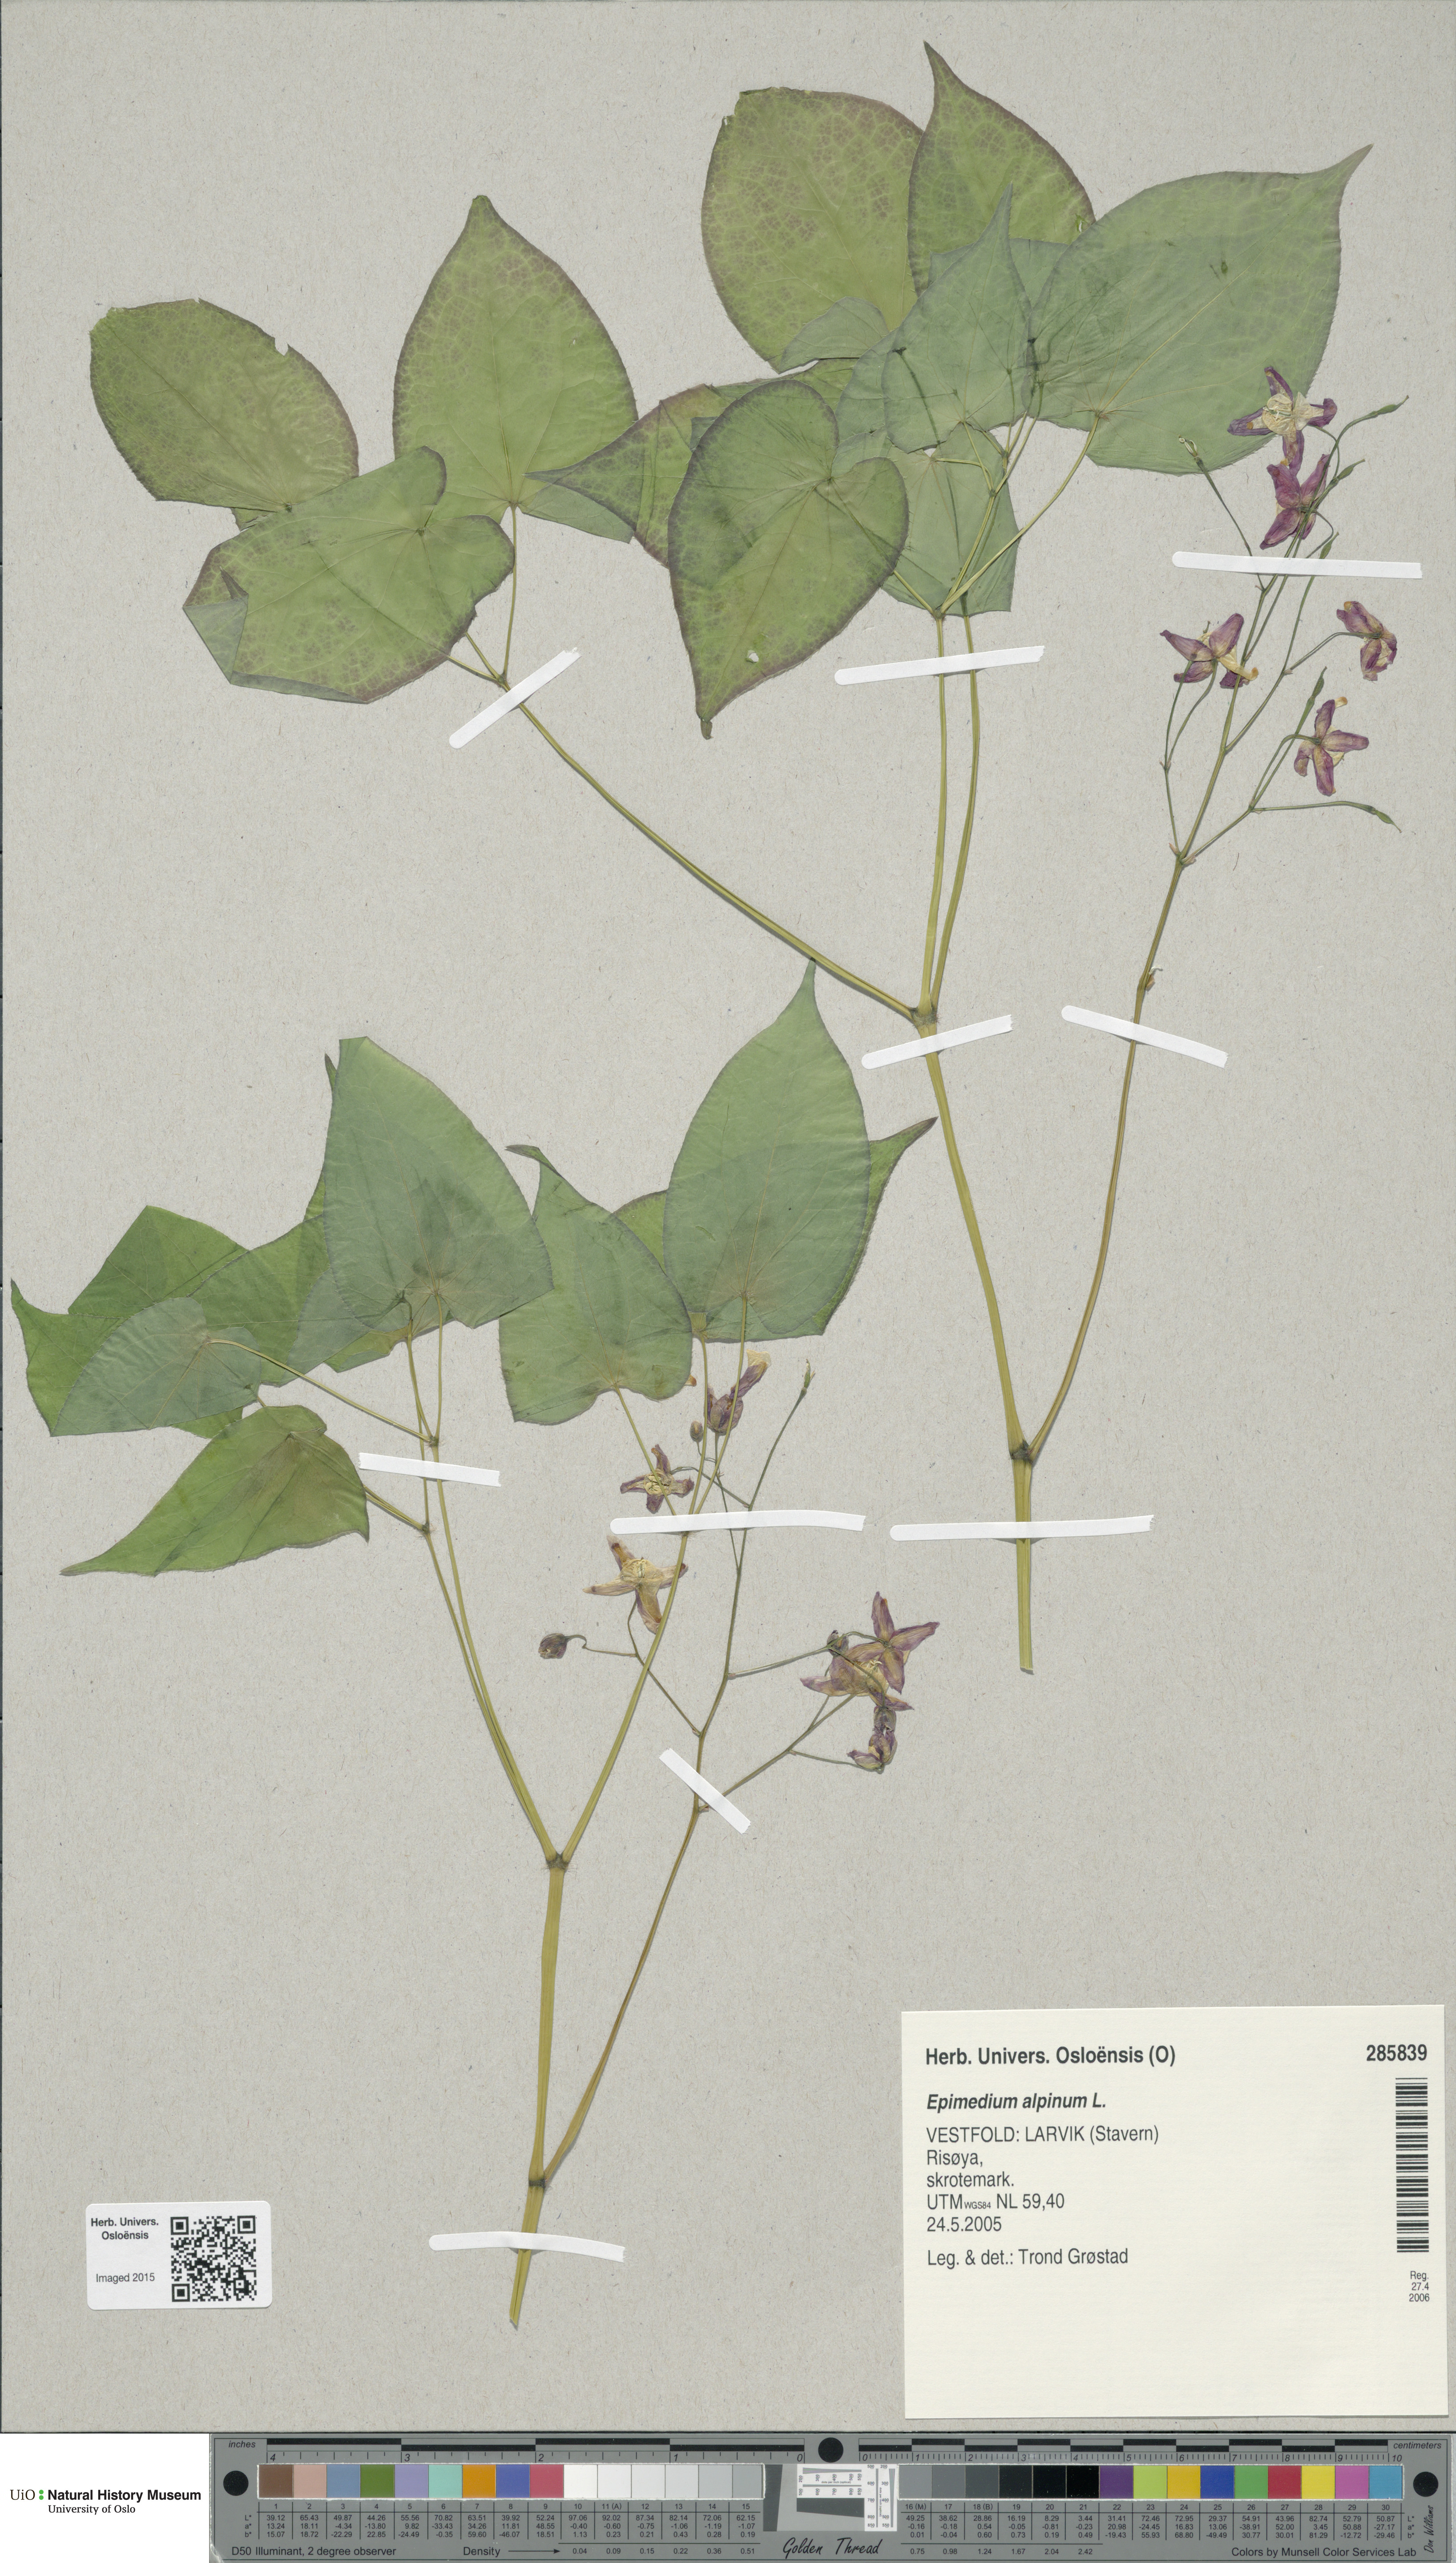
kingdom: Plantae
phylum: Tracheophyta
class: Magnoliopsida
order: Ranunculales
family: Berberidaceae
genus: Epimedium
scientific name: Epimedium alpinum
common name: Barrenwort
